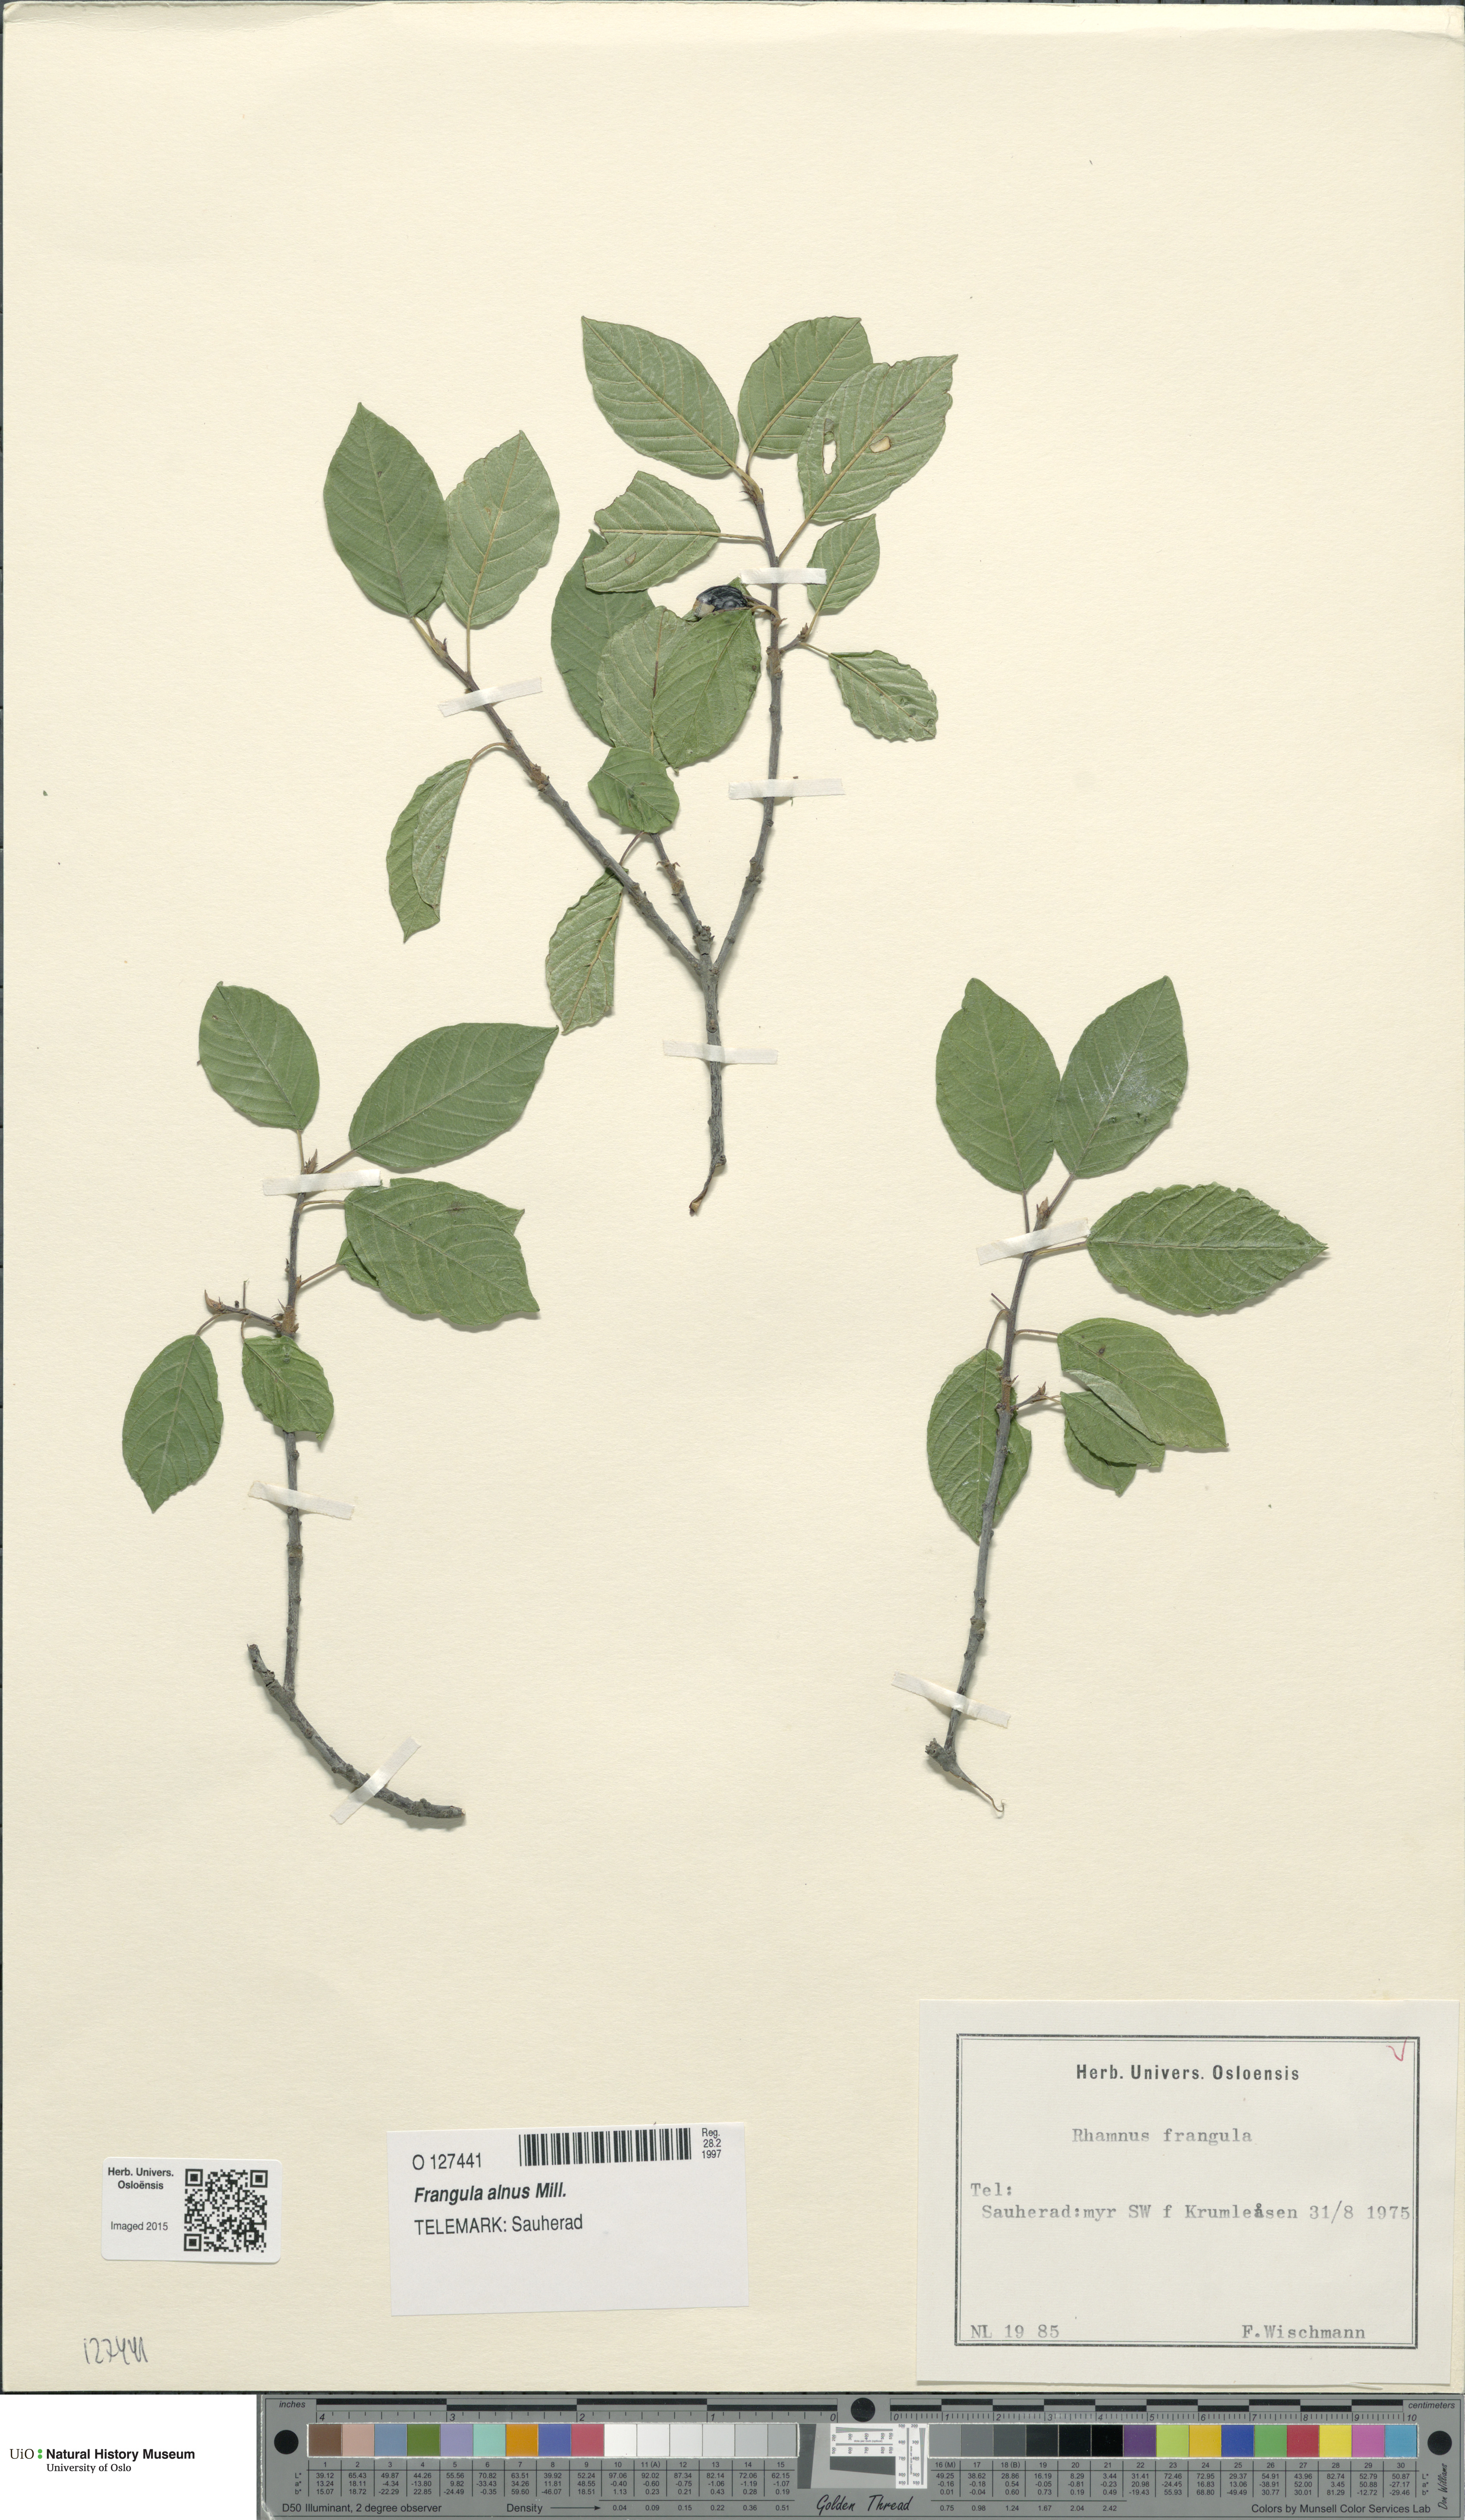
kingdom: Plantae
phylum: Tracheophyta
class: Magnoliopsida
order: Rosales
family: Rhamnaceae
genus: Frangula
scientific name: Frangula alnus
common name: Alder buckthorn
